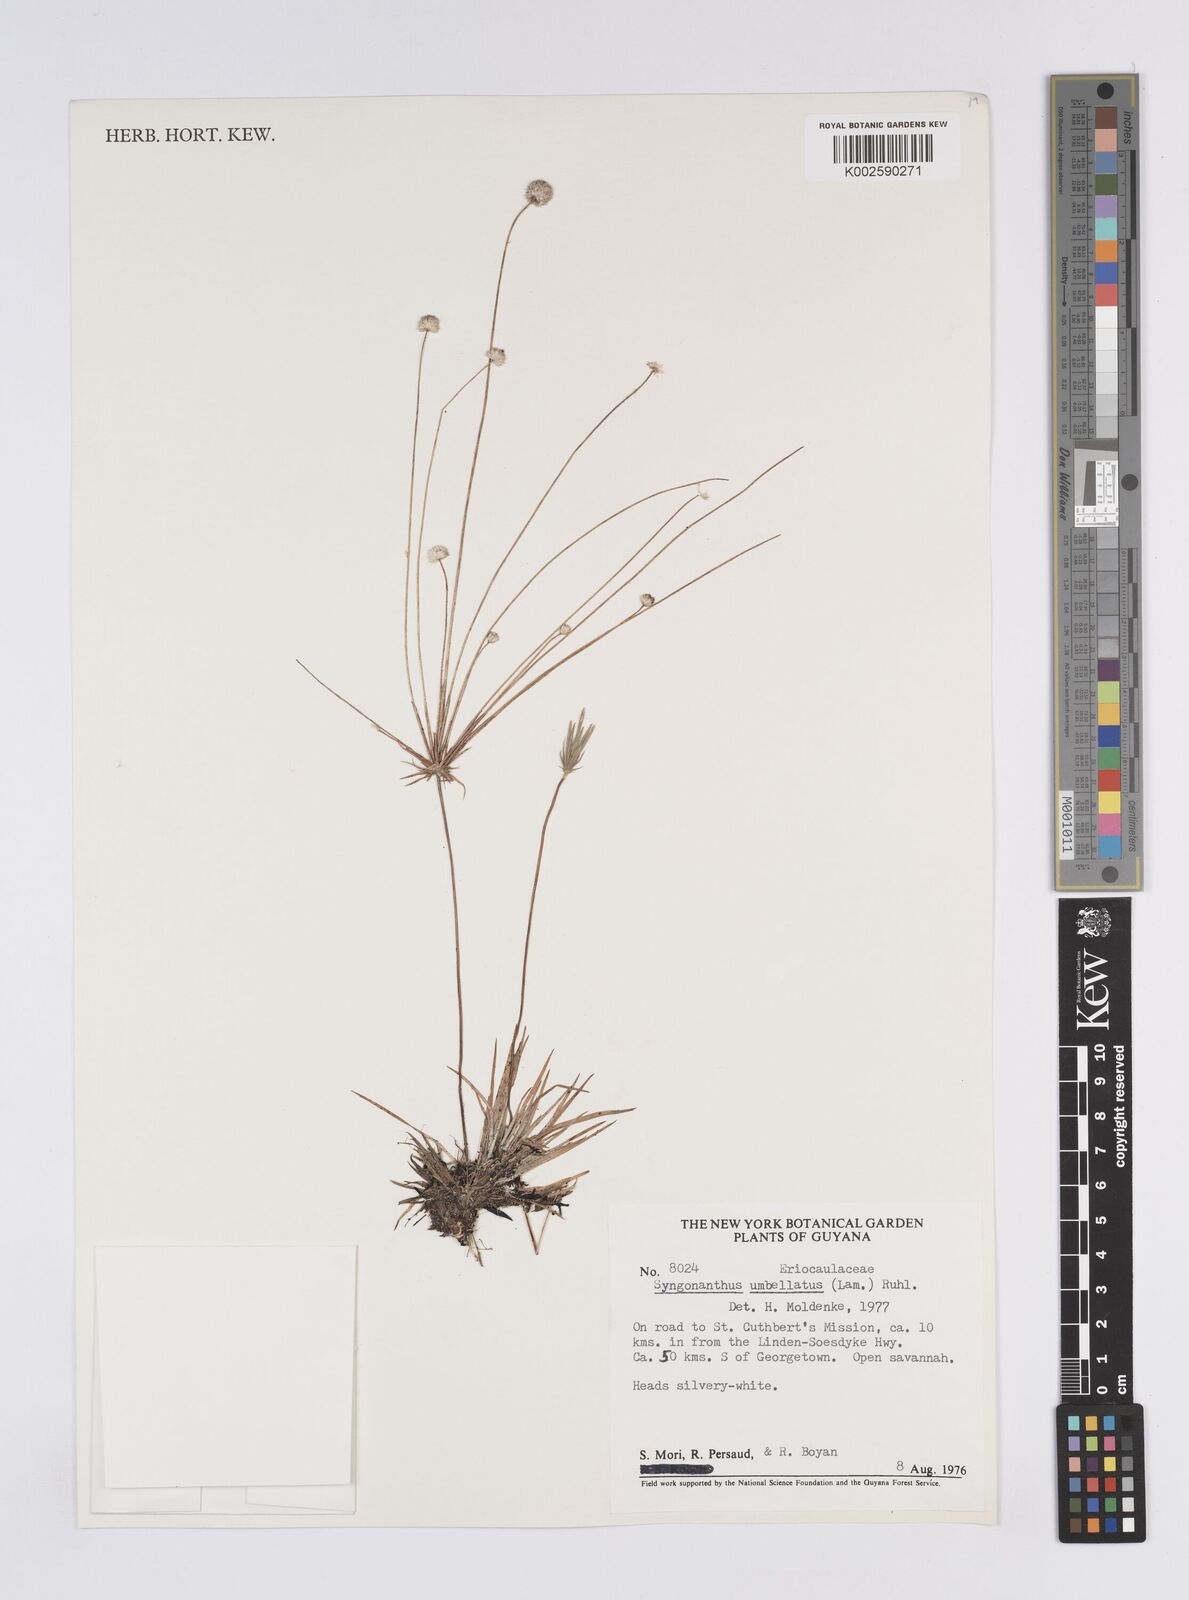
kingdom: Plantae
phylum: Tracheophyta
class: Liliopsida
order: Poales
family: Eriocaulaceae
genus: Syngonanthus
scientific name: Syngonanthus umbellatus
